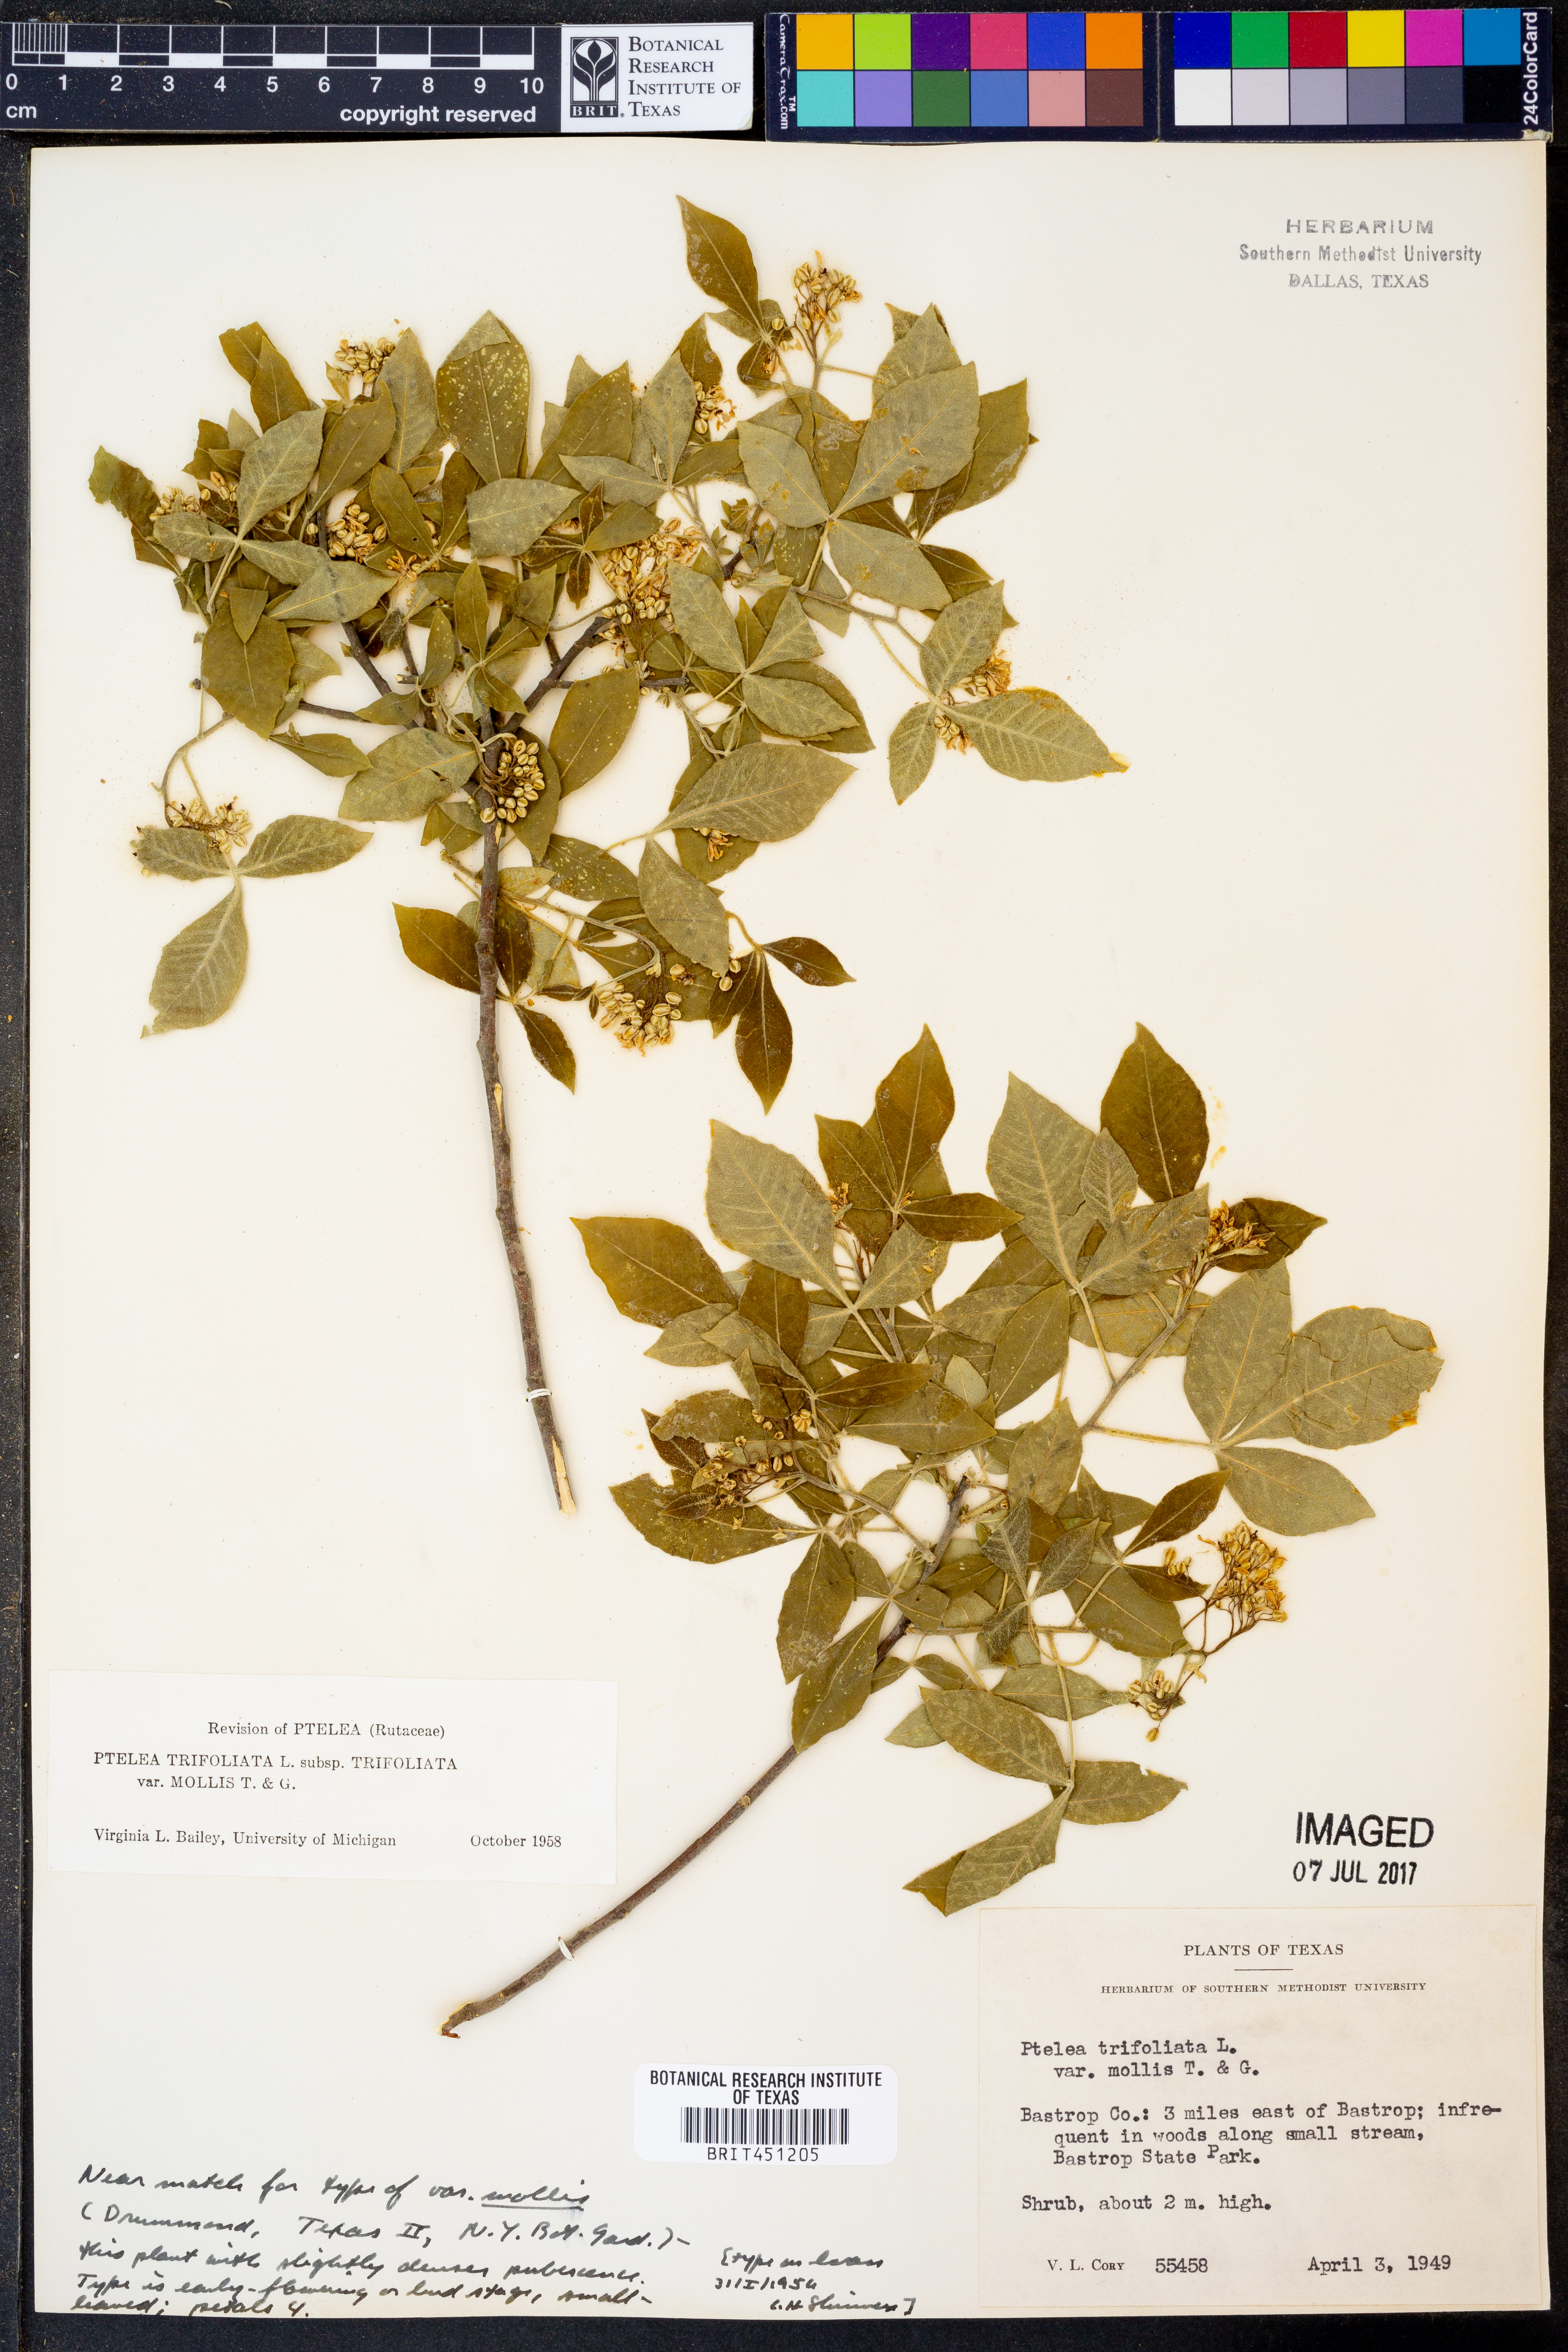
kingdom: Plantae
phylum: Tracheophyta
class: Magnoliopsida
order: Sapindales
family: Rutaceae
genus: Ptelea
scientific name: Ptelea trifoliata
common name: Common hop-tree
